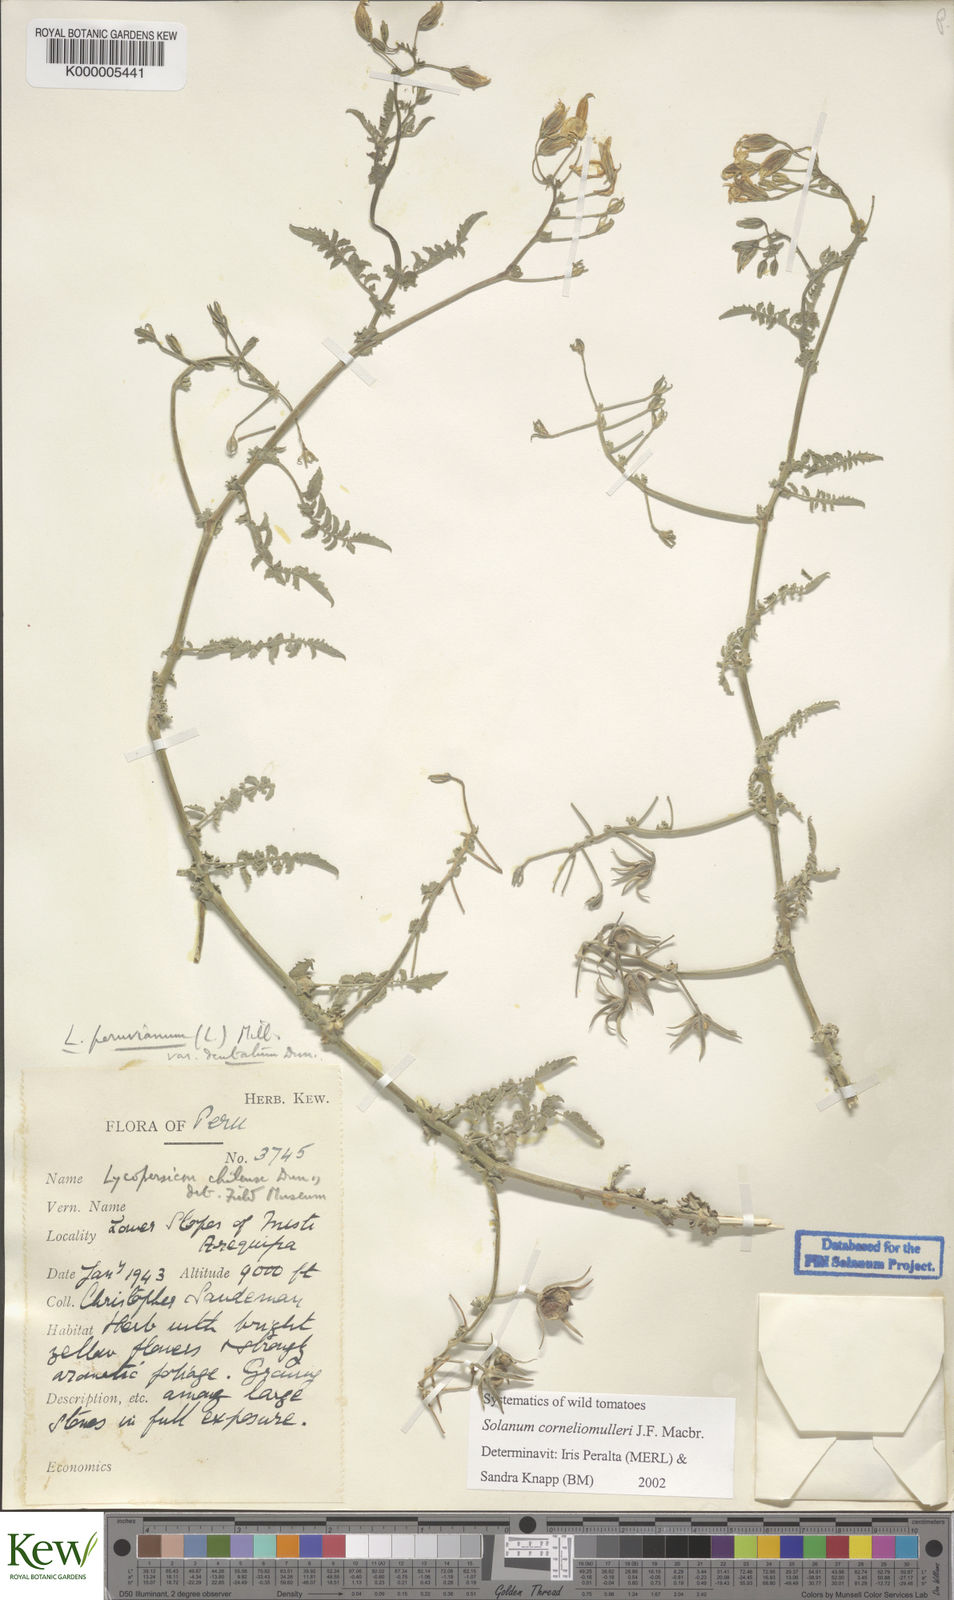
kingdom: Plantae
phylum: Tracheophyta
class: Magnoliopsida
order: Solanales
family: Solanaceae
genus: Solanum
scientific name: Solanum corneliomulleri
